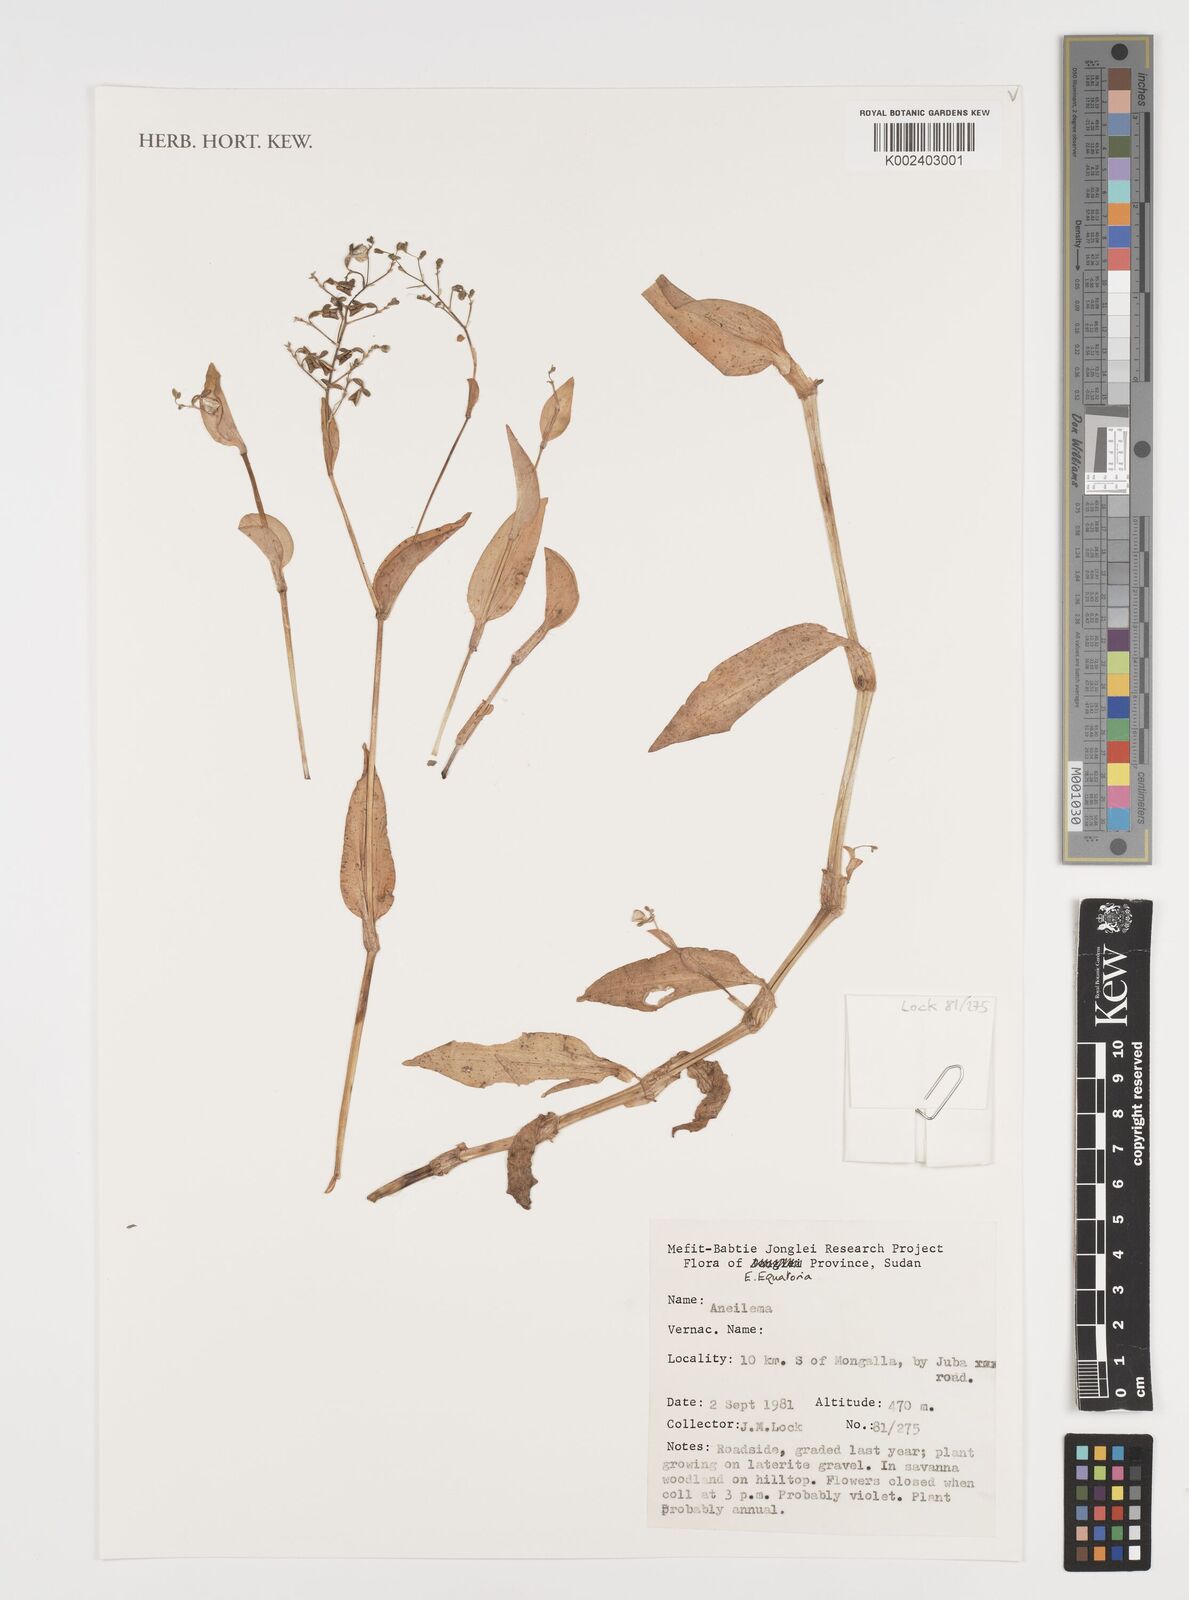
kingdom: Plantae
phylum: Tracheophyta
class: Liliopsida
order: Commelinales
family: Commelinaceae
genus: Aneilema
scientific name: Aneilema
